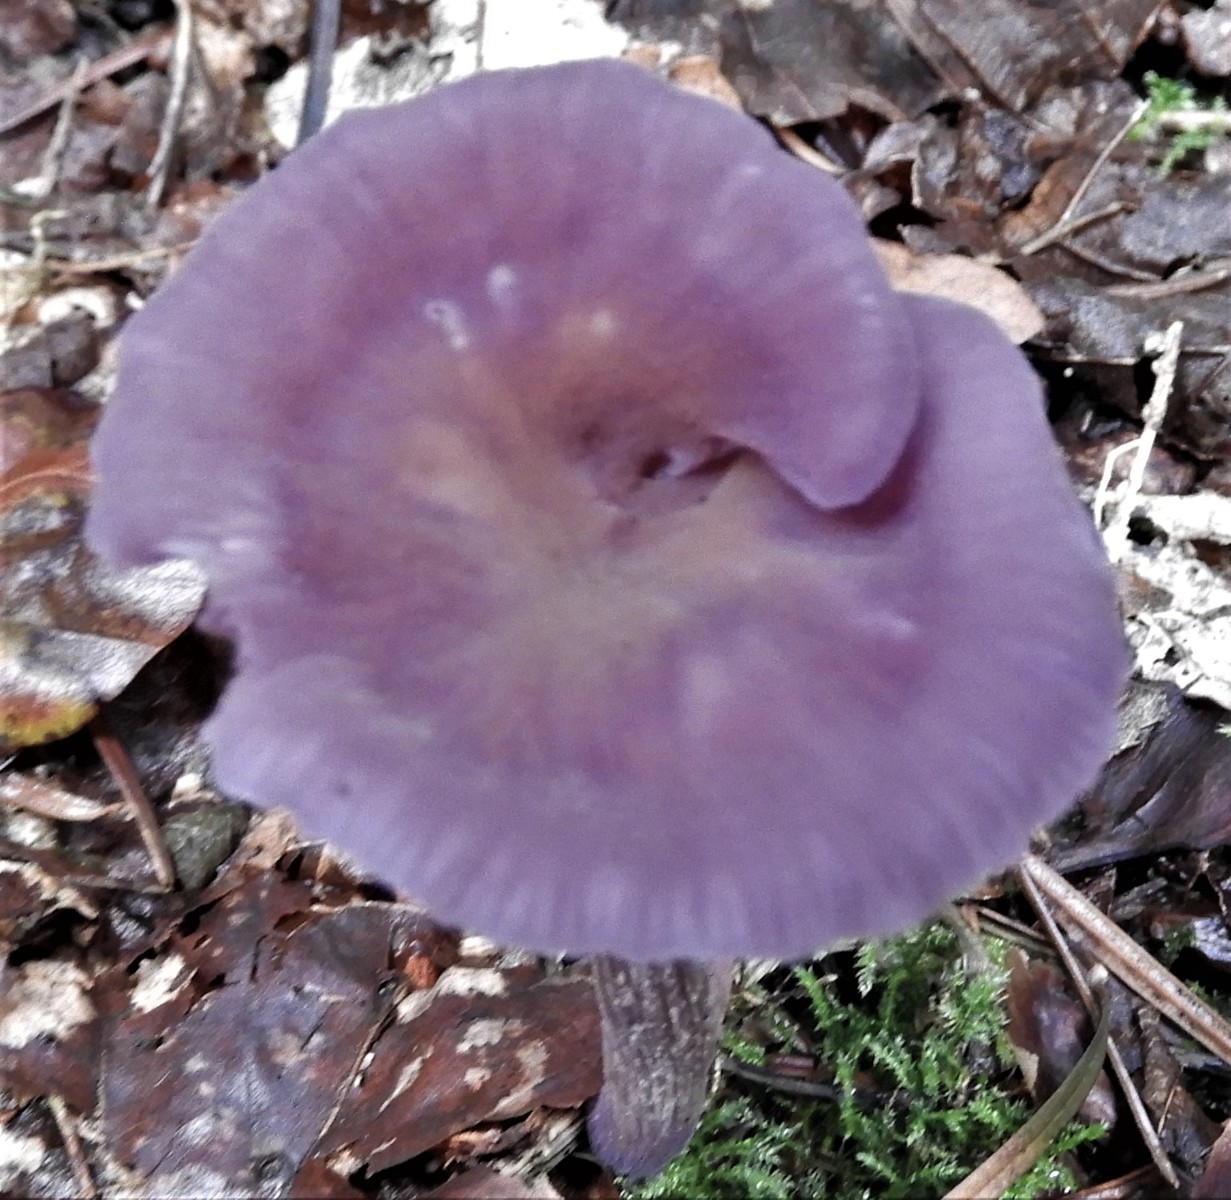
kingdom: Fungi
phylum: Basidiomycota
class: Agaricomycetes
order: Agaricales
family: Hydnangiaceae
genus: Laccaria
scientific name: Laccaria amethystina
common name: violet ametysthat
